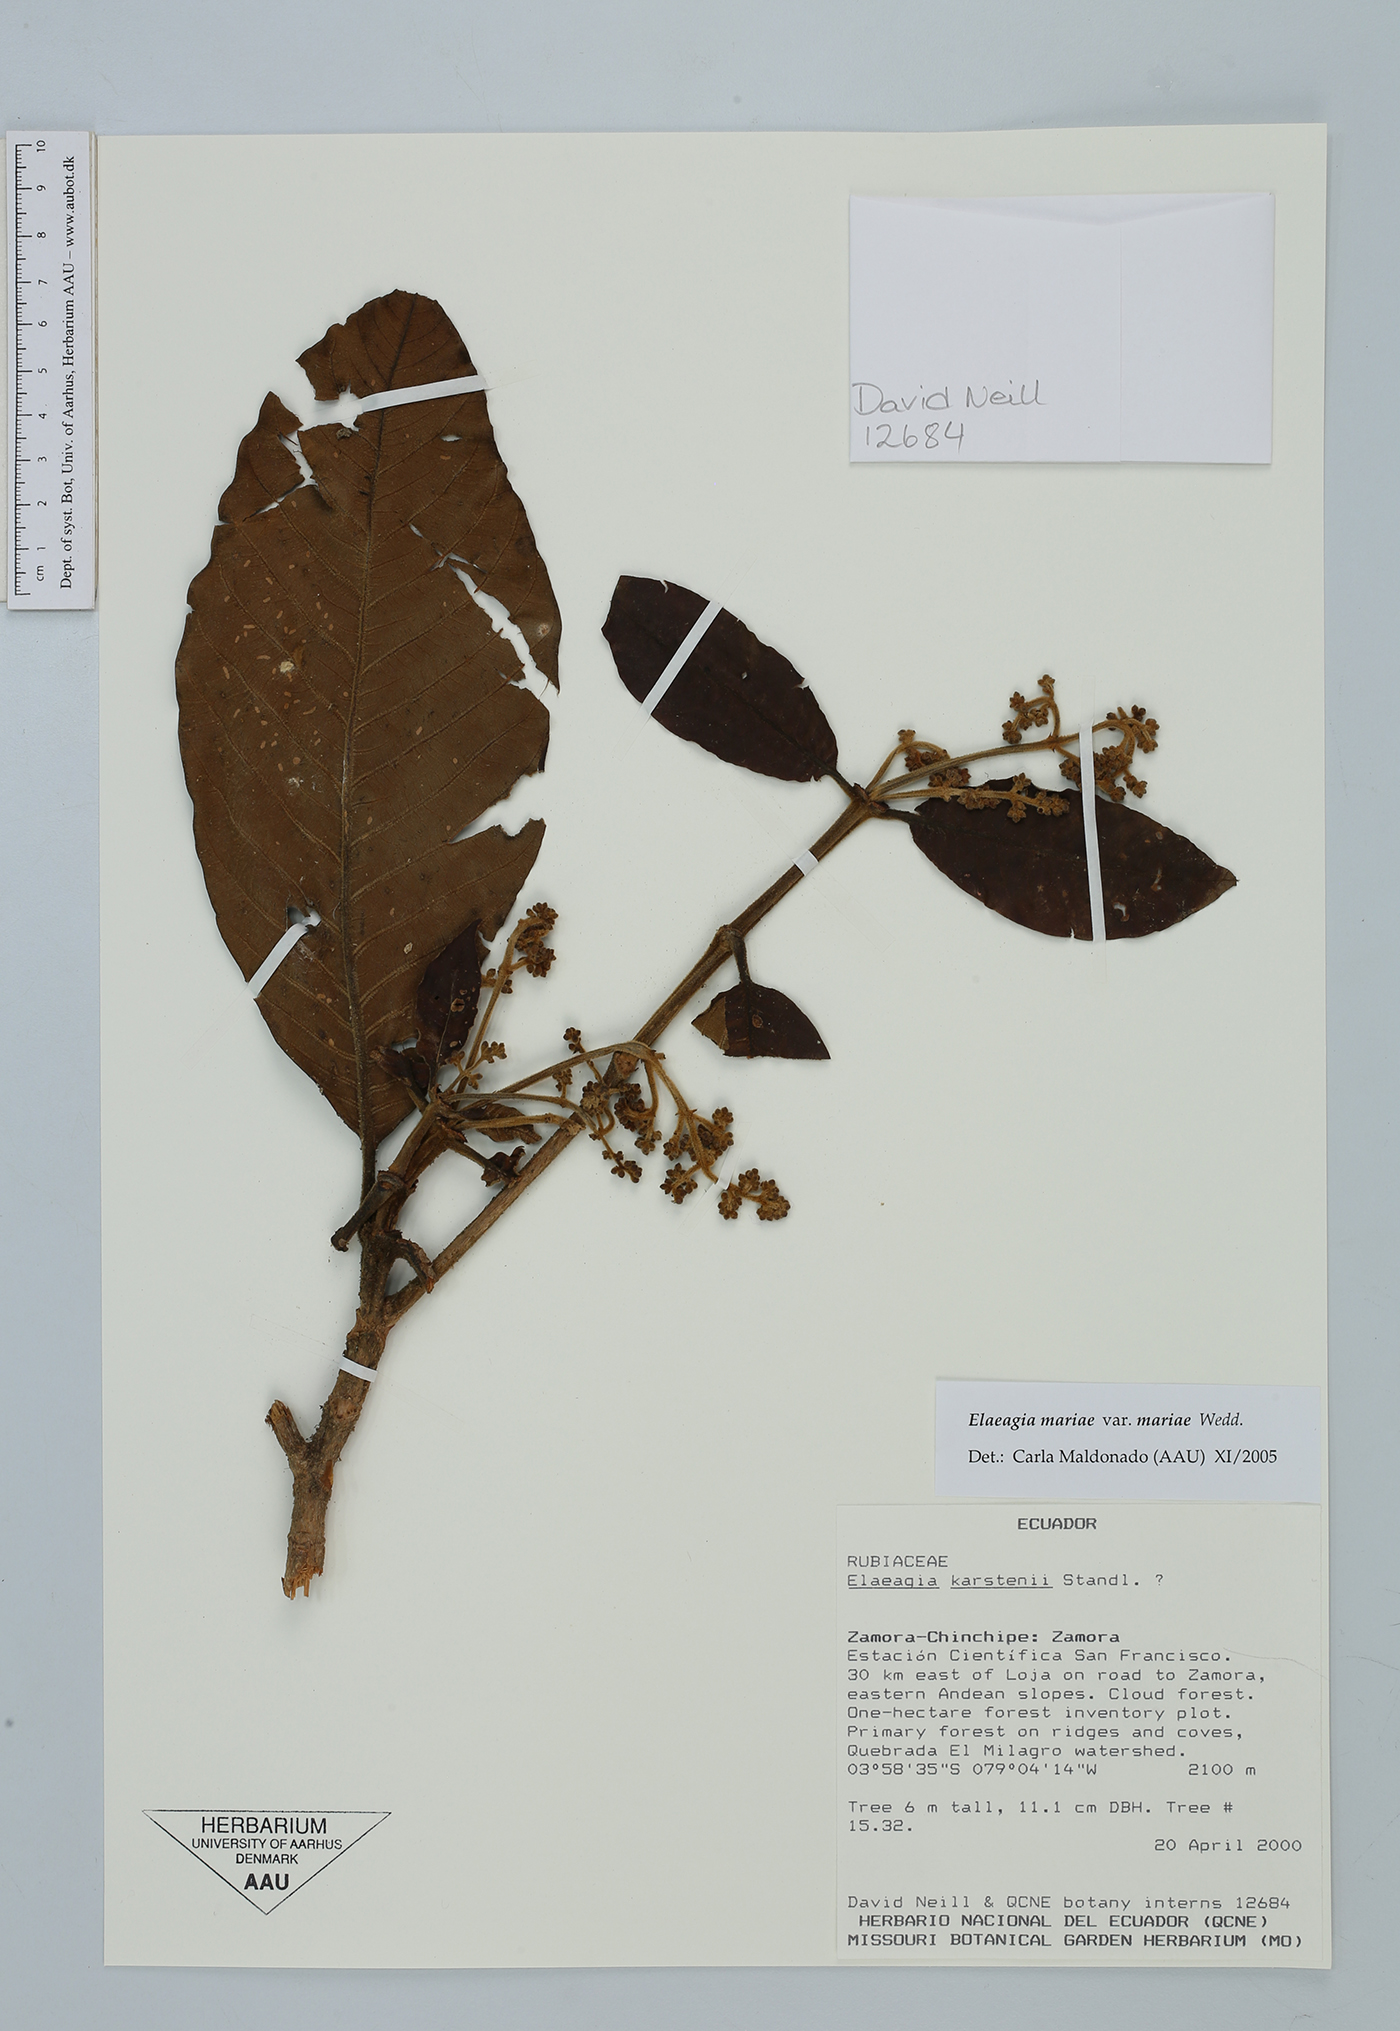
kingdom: Plantae
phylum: Tracheophyta
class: Magnoliopsida
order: Gentianales
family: Rubiaceae
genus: Elaeagia
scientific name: Elaeagia mariae
